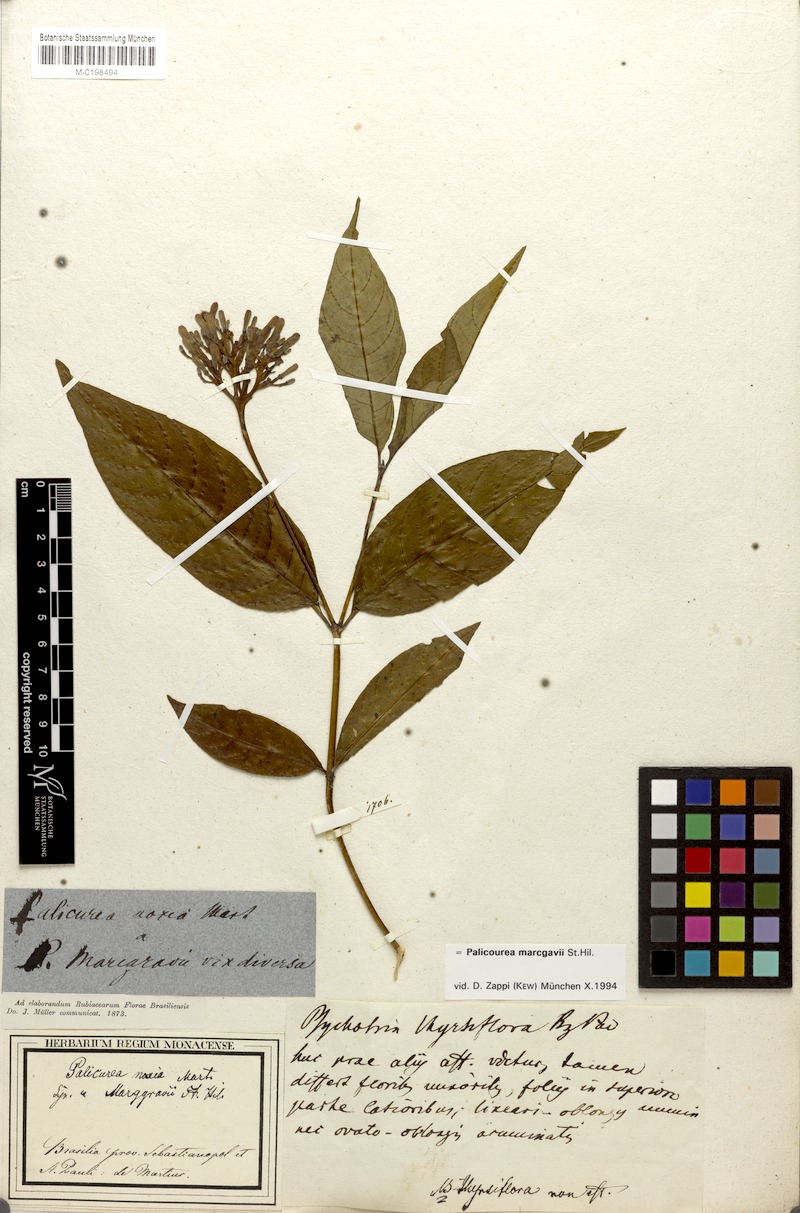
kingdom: Plantae
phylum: Tracheophyta
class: Magnoliopsida
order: Gentianales
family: Rubiaceae
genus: Palicourea
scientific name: Palicourea crocea
